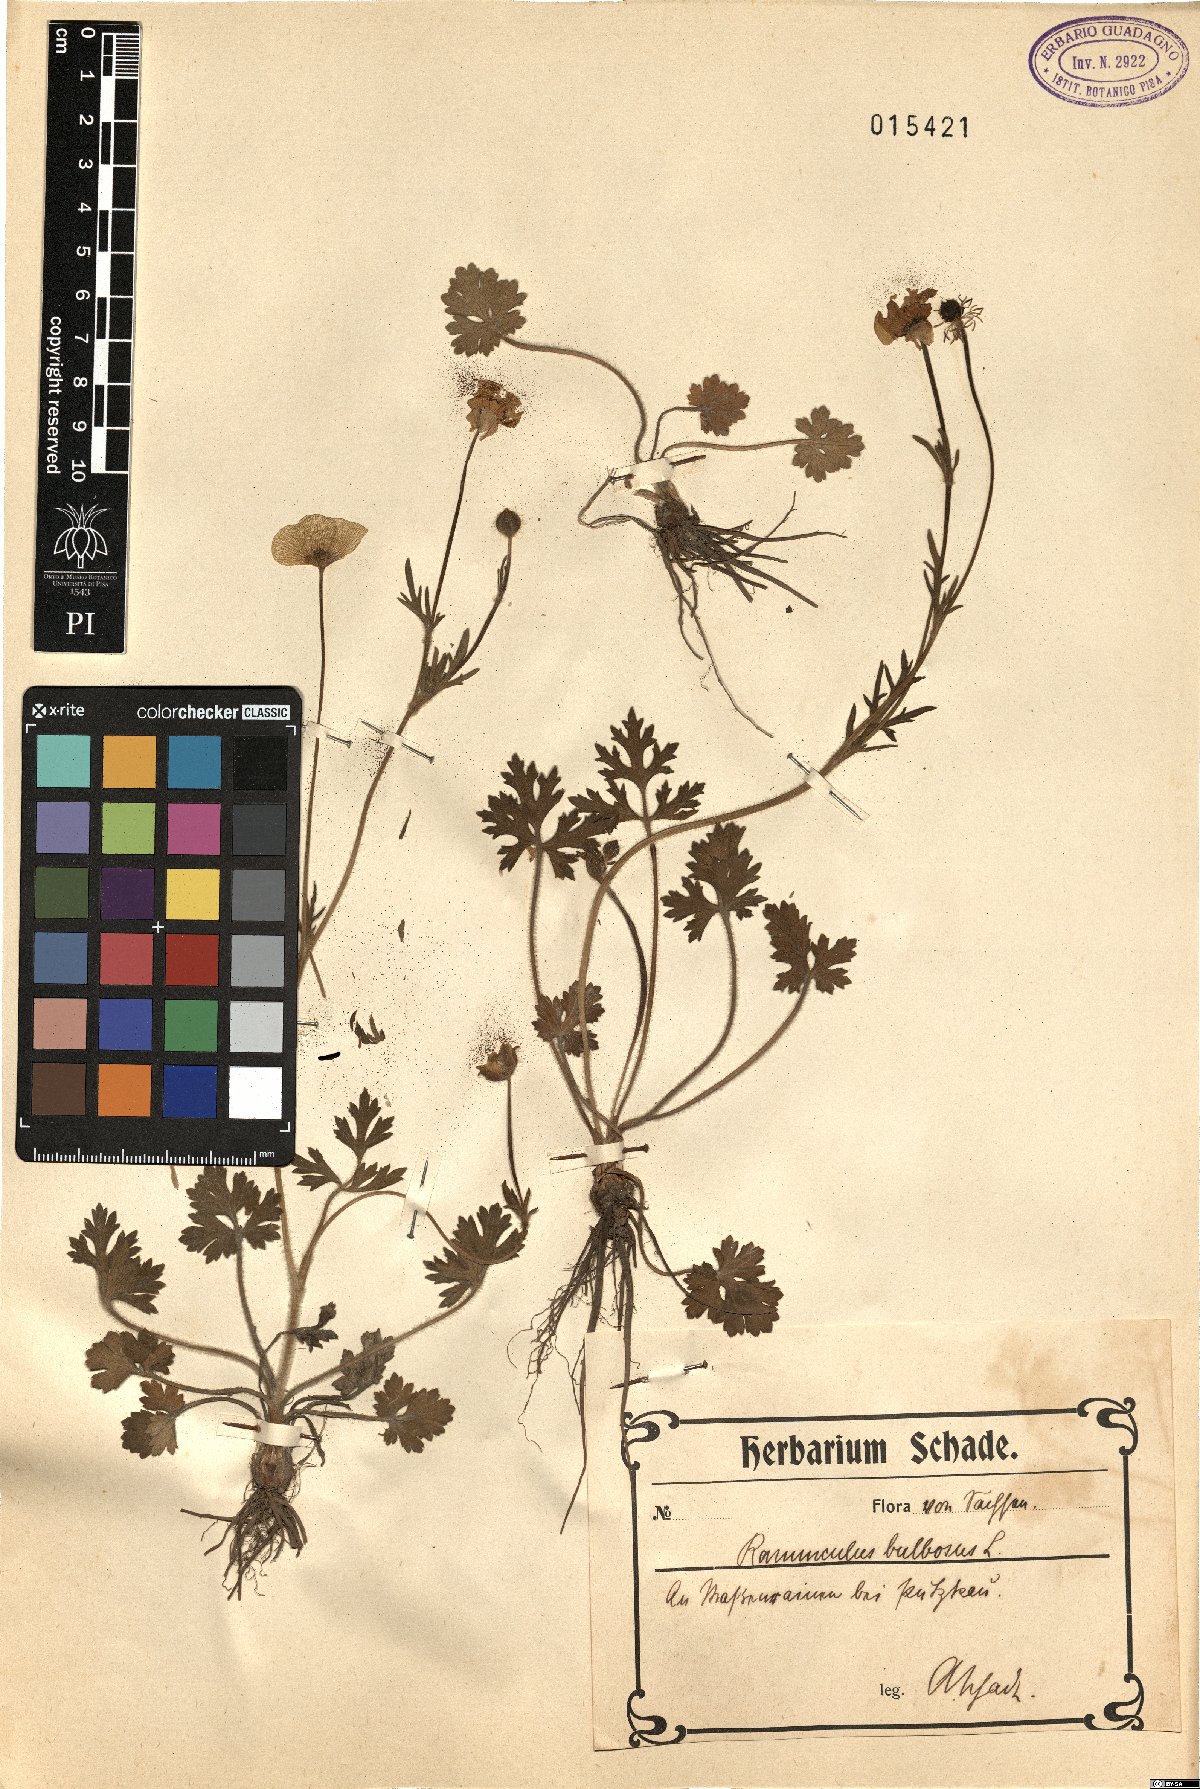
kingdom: Plantae
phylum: Tracheophyta
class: Magnoliopsida
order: Ranunculales
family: Ranunculaceae
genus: Ranunculus
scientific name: Ranunculus bulbosus
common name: Bulbous buttercup
